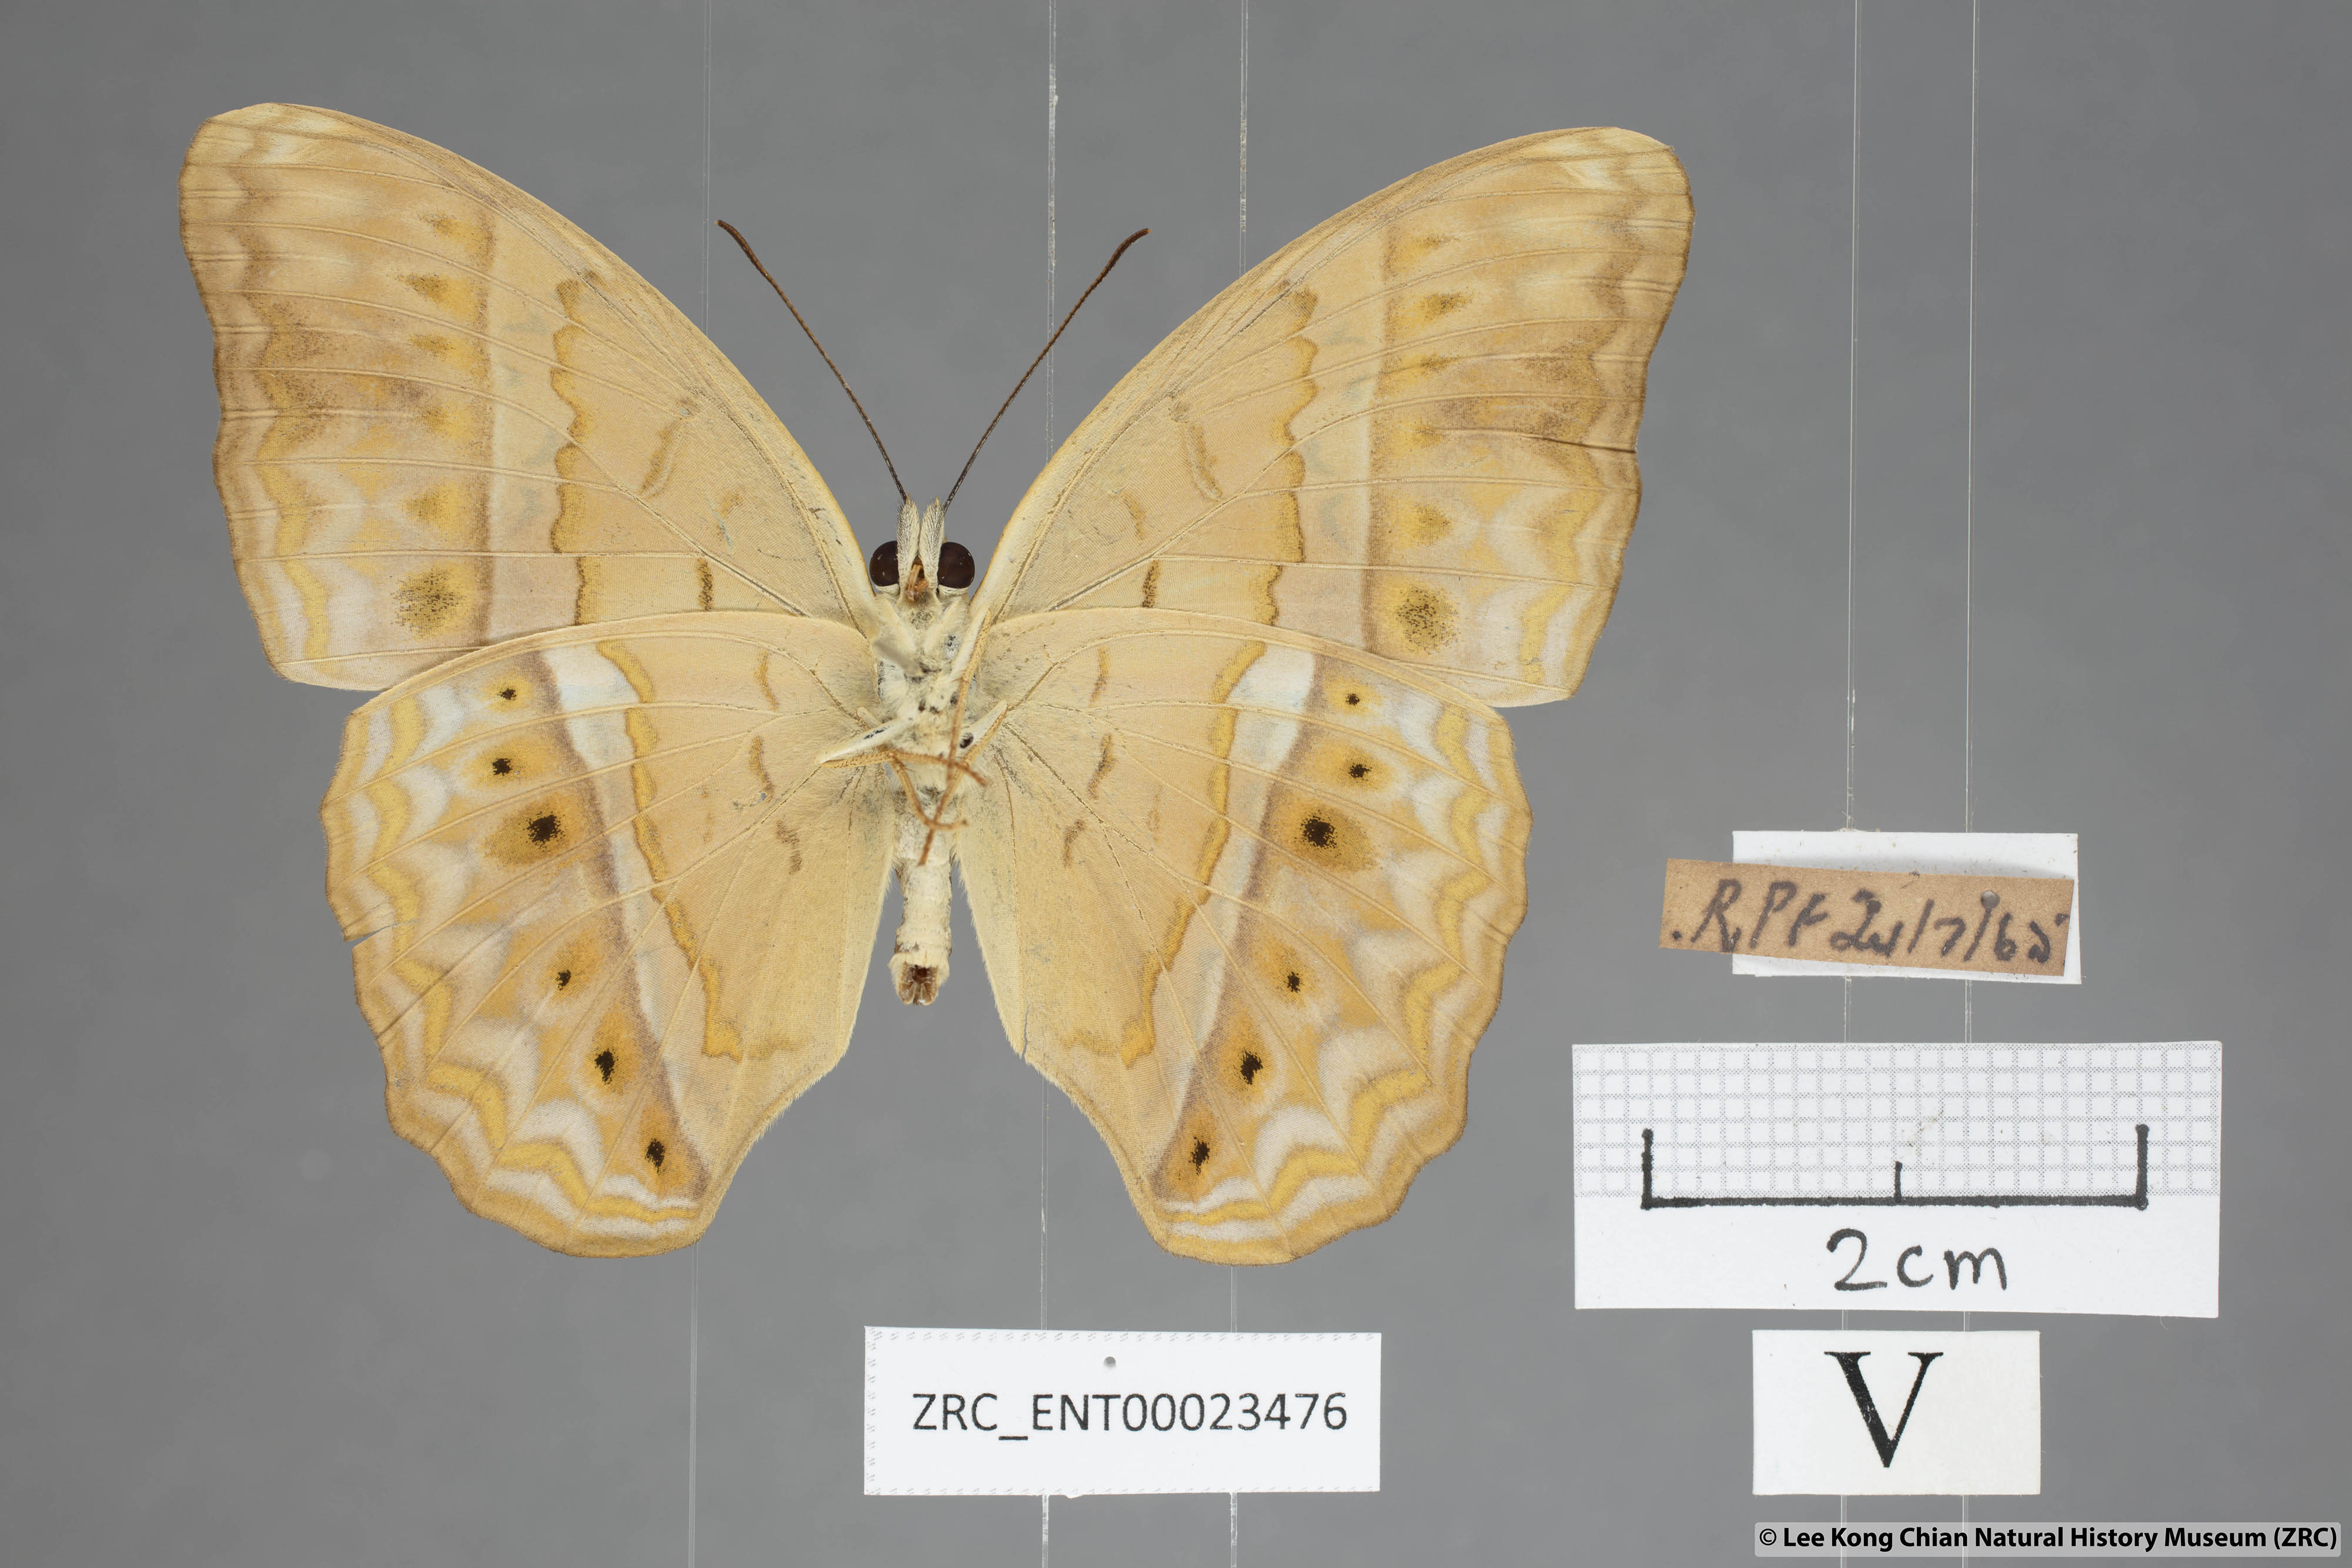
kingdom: Animalia
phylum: Arthropoda
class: Insecta
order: Lepidoptera
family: Nymphalidae
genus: Cirrochroa
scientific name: Cirrochroa tyche
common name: Common yeoman
